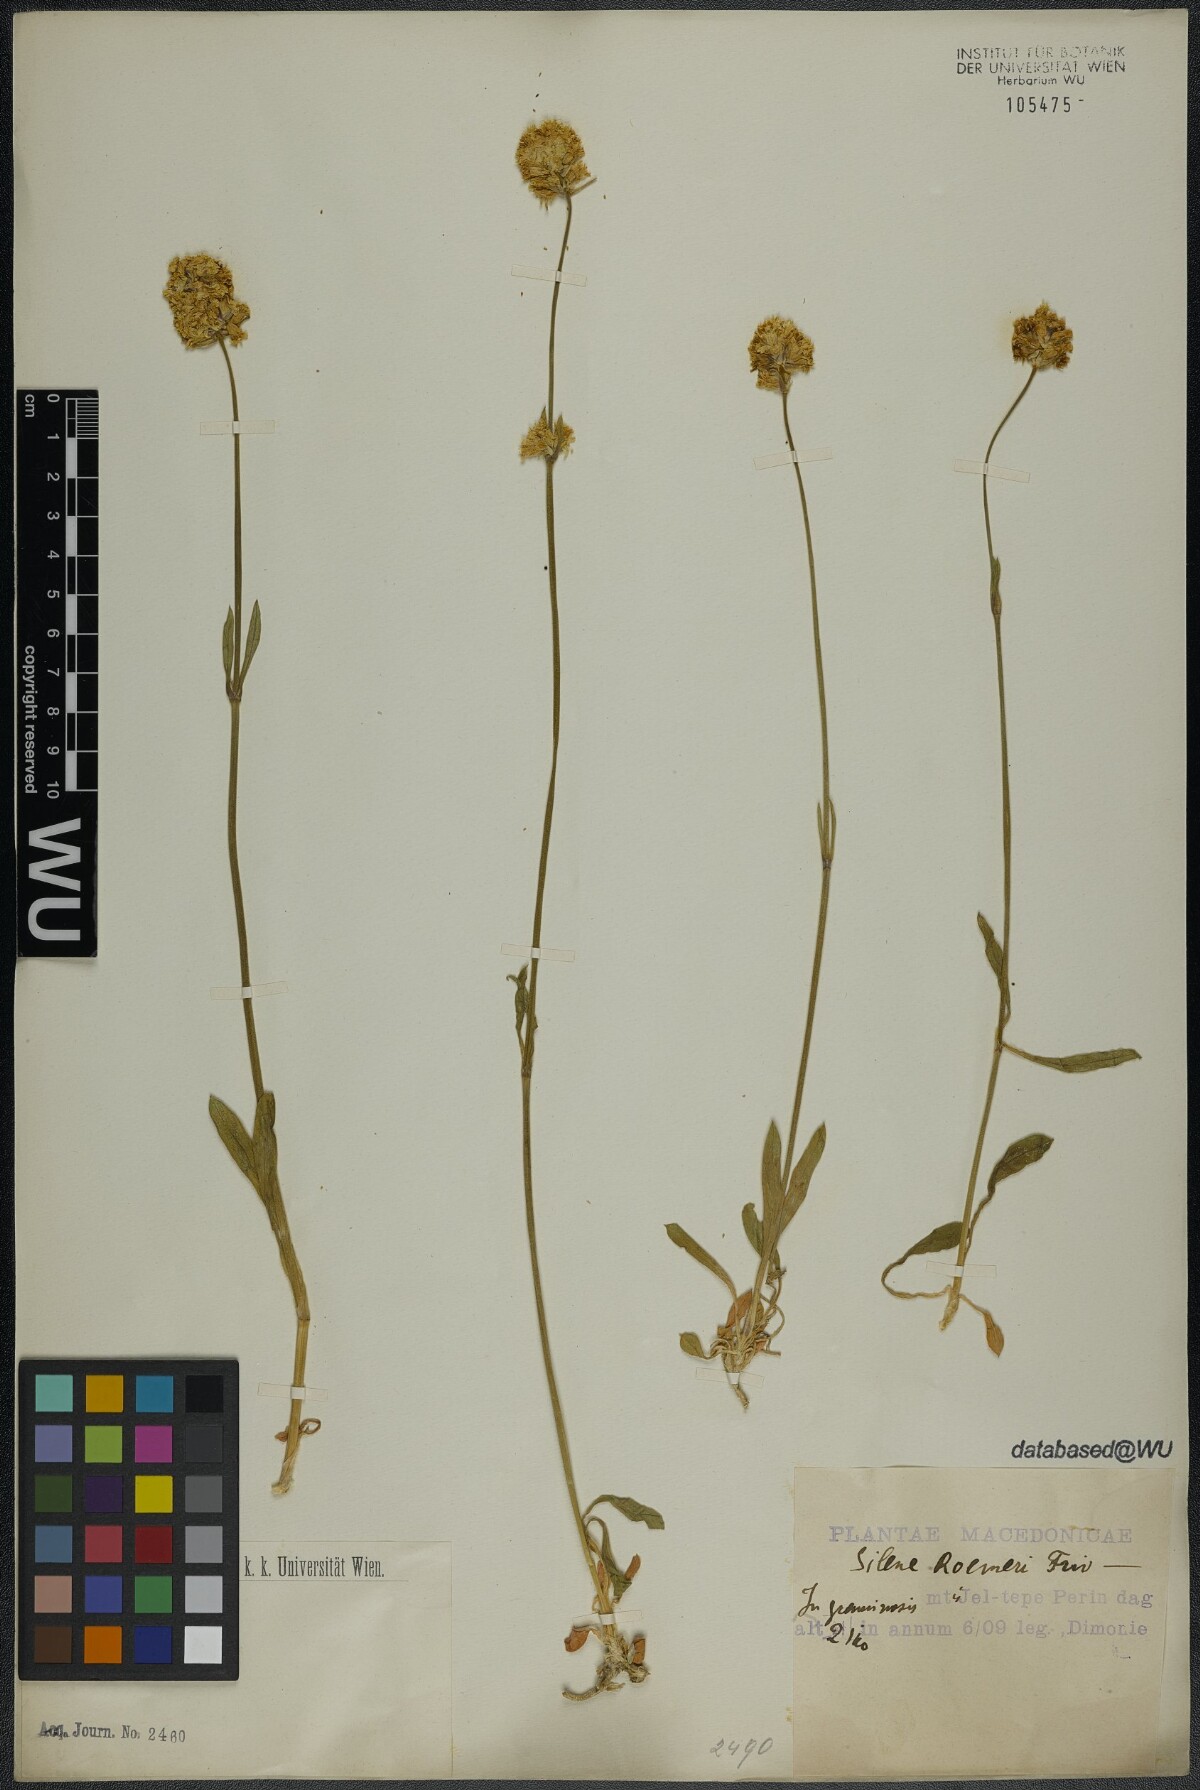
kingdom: Plantae
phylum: Tracheophyta
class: Magnoliopsida
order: Caryophyllales
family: Caryophyllaceae
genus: Silene
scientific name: Silene roemeri
